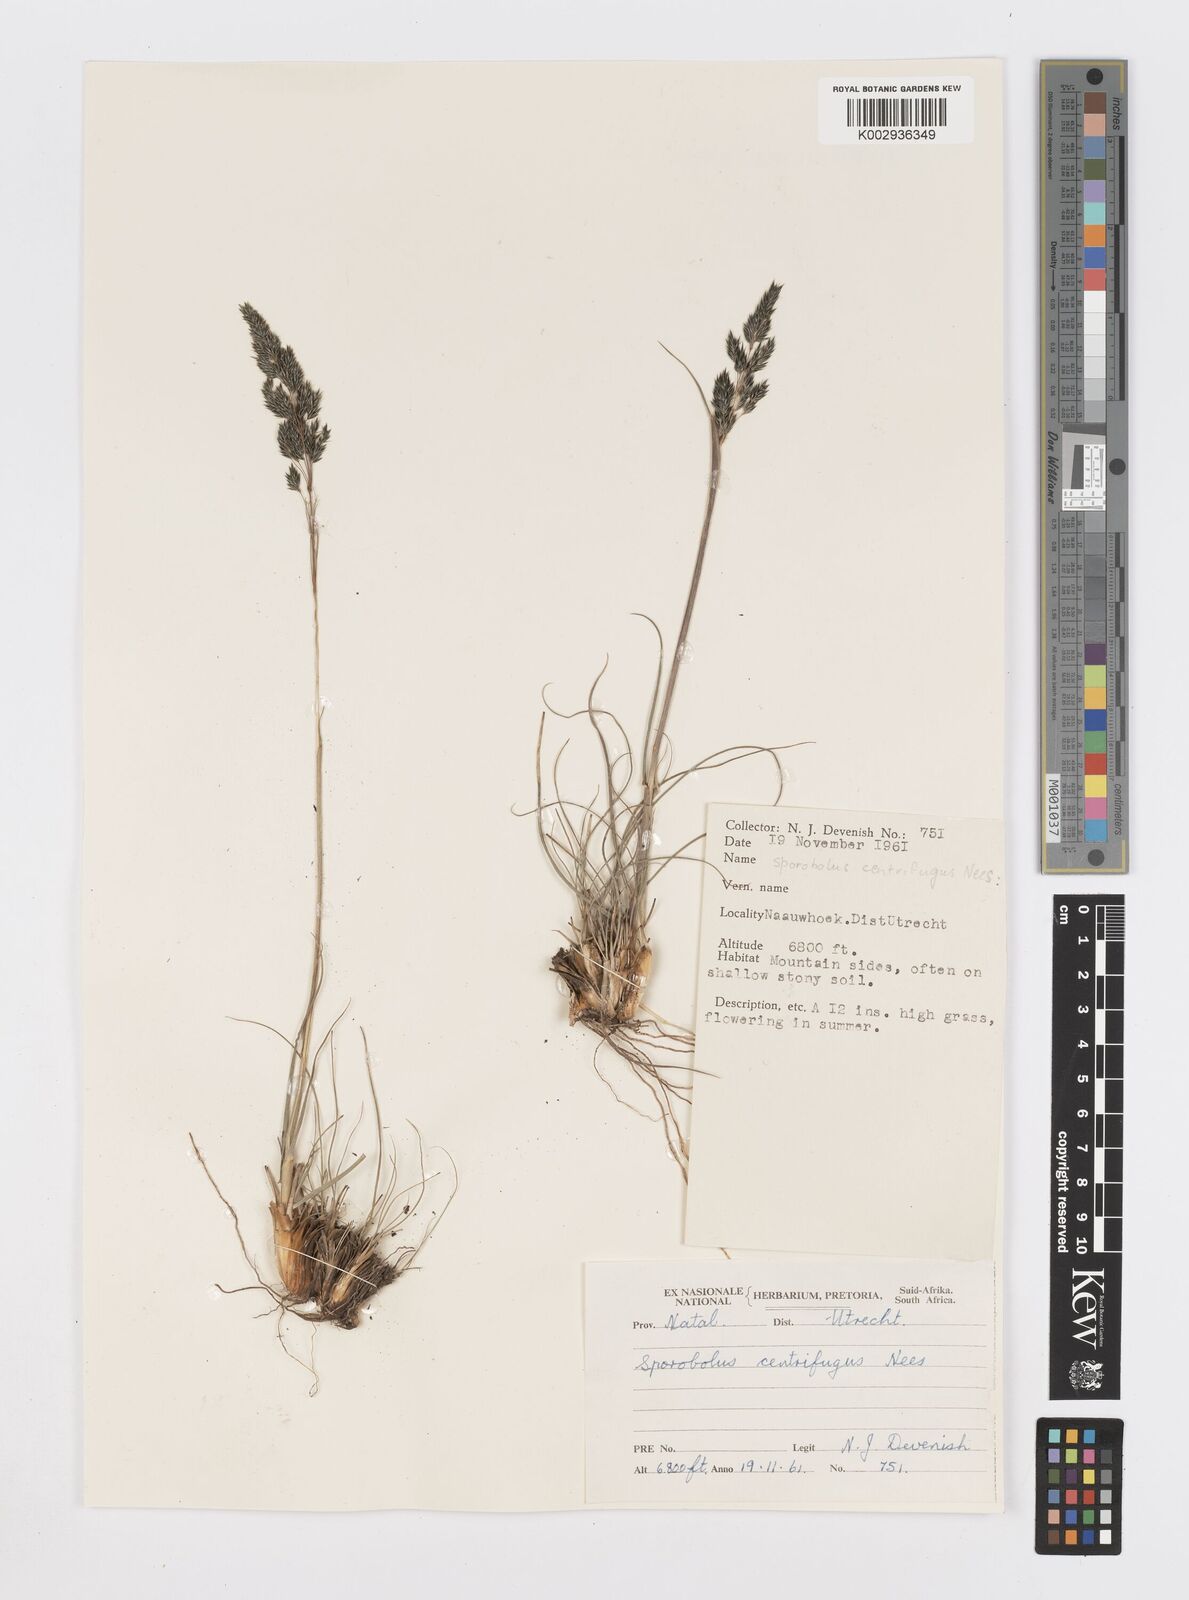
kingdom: Plantae
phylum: Tracheophyta
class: Liliopsida
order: Poales
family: Poaceae
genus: Sporobolus
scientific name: Sporobolus centrifugus
